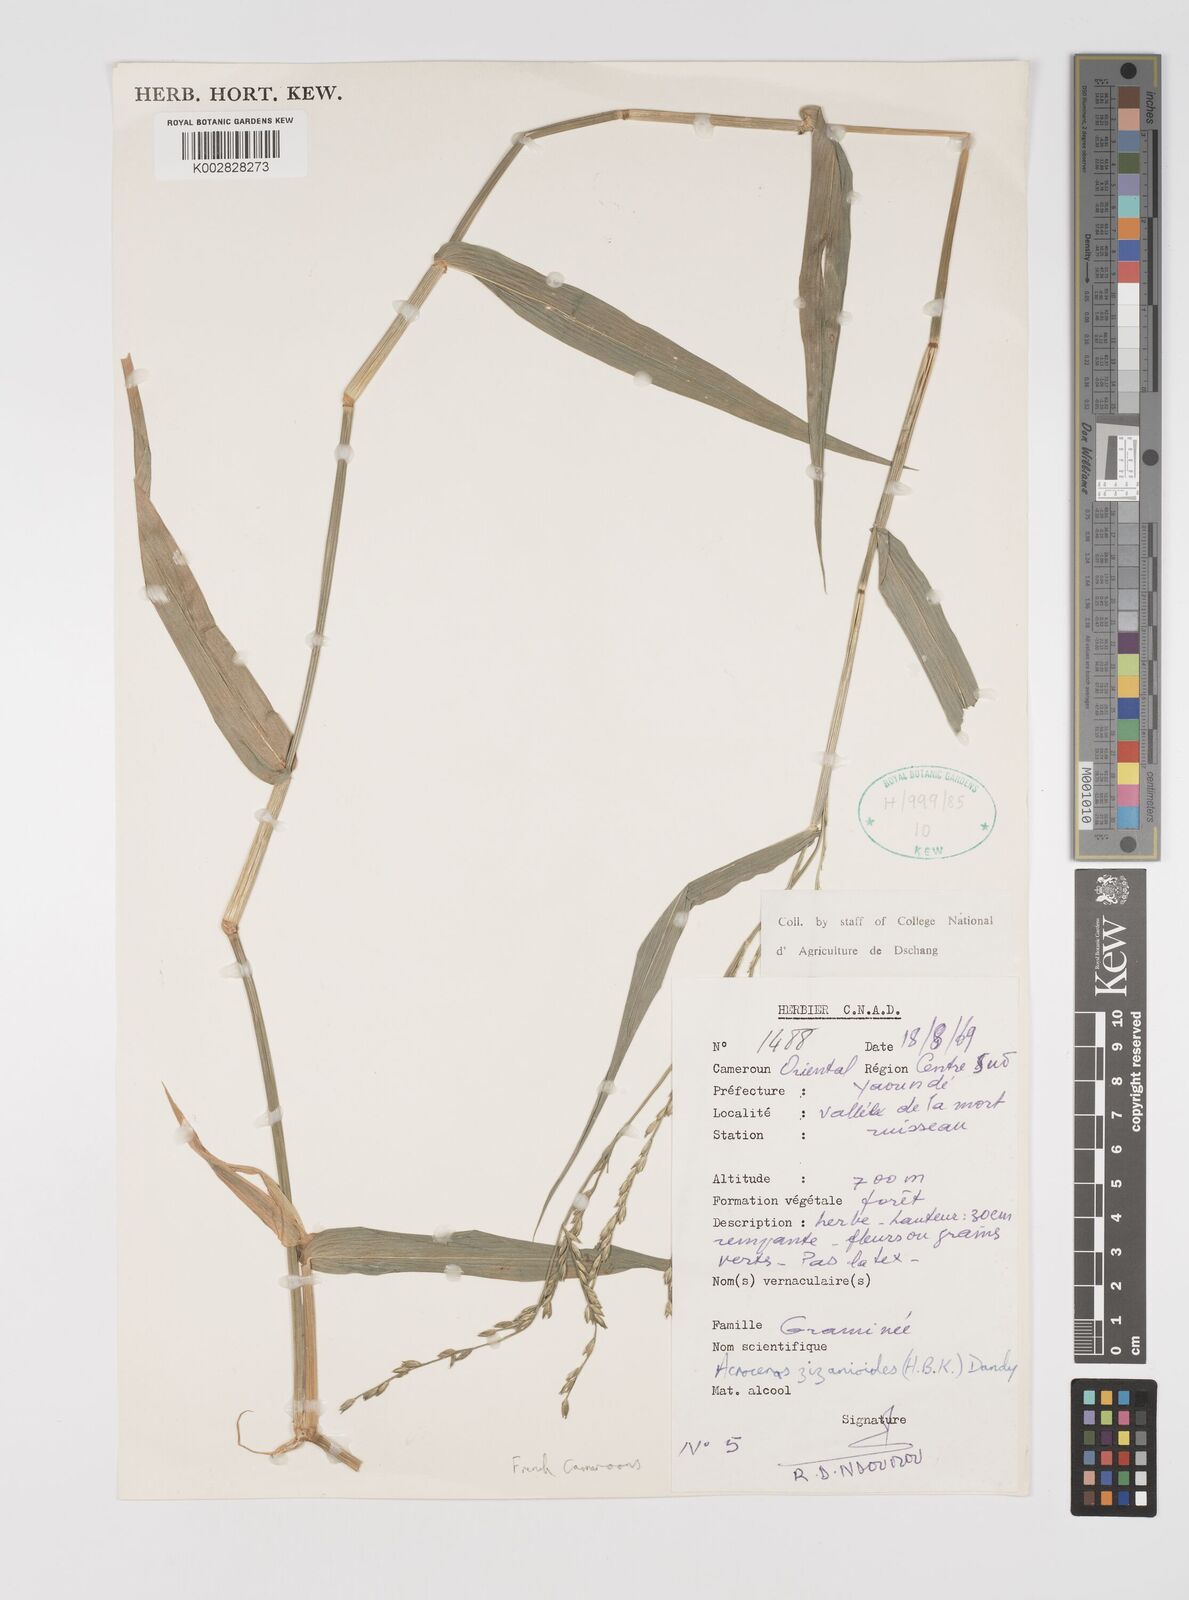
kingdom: Plantae
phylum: Tracheophyta
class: Liliopsida
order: Poales
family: Poaceae
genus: Acroceras
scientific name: Acroceras zizanioides
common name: Oat grass
